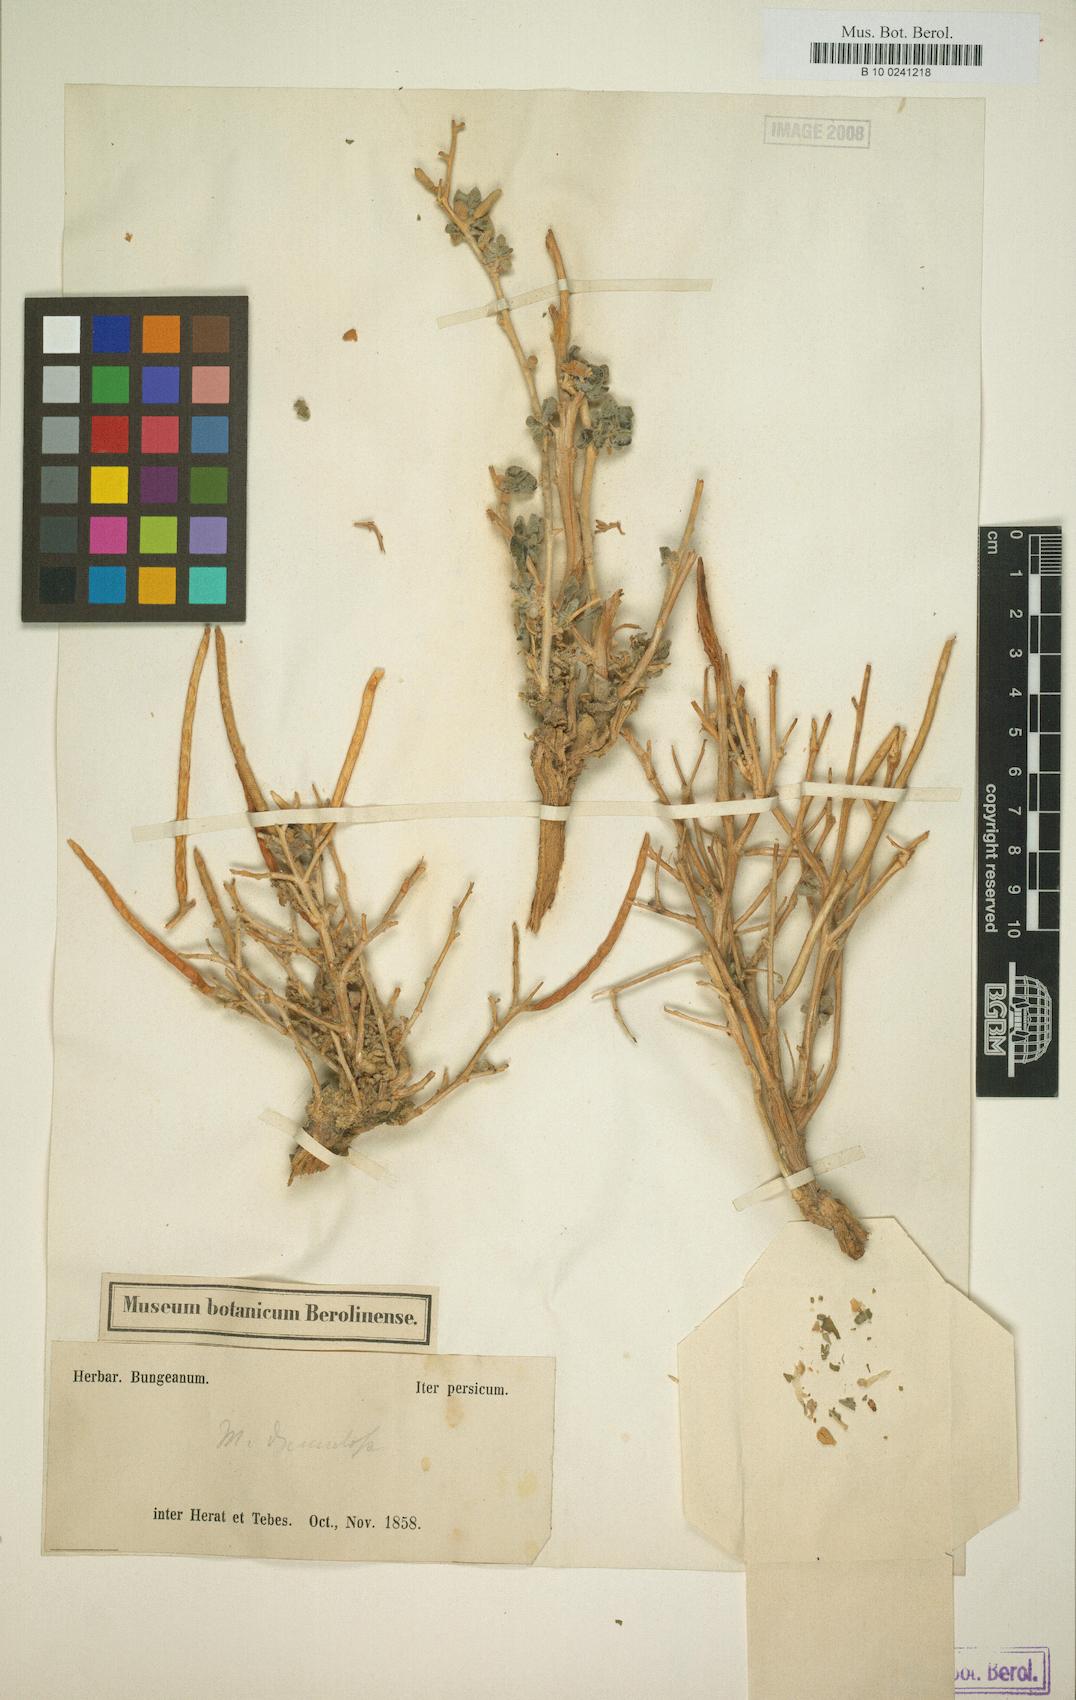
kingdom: Plantae
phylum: Tracheophyta
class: Magnoliopsida
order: Brassicales
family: Brassicaceae
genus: Matthiola
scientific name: Matthiola dumulosa
